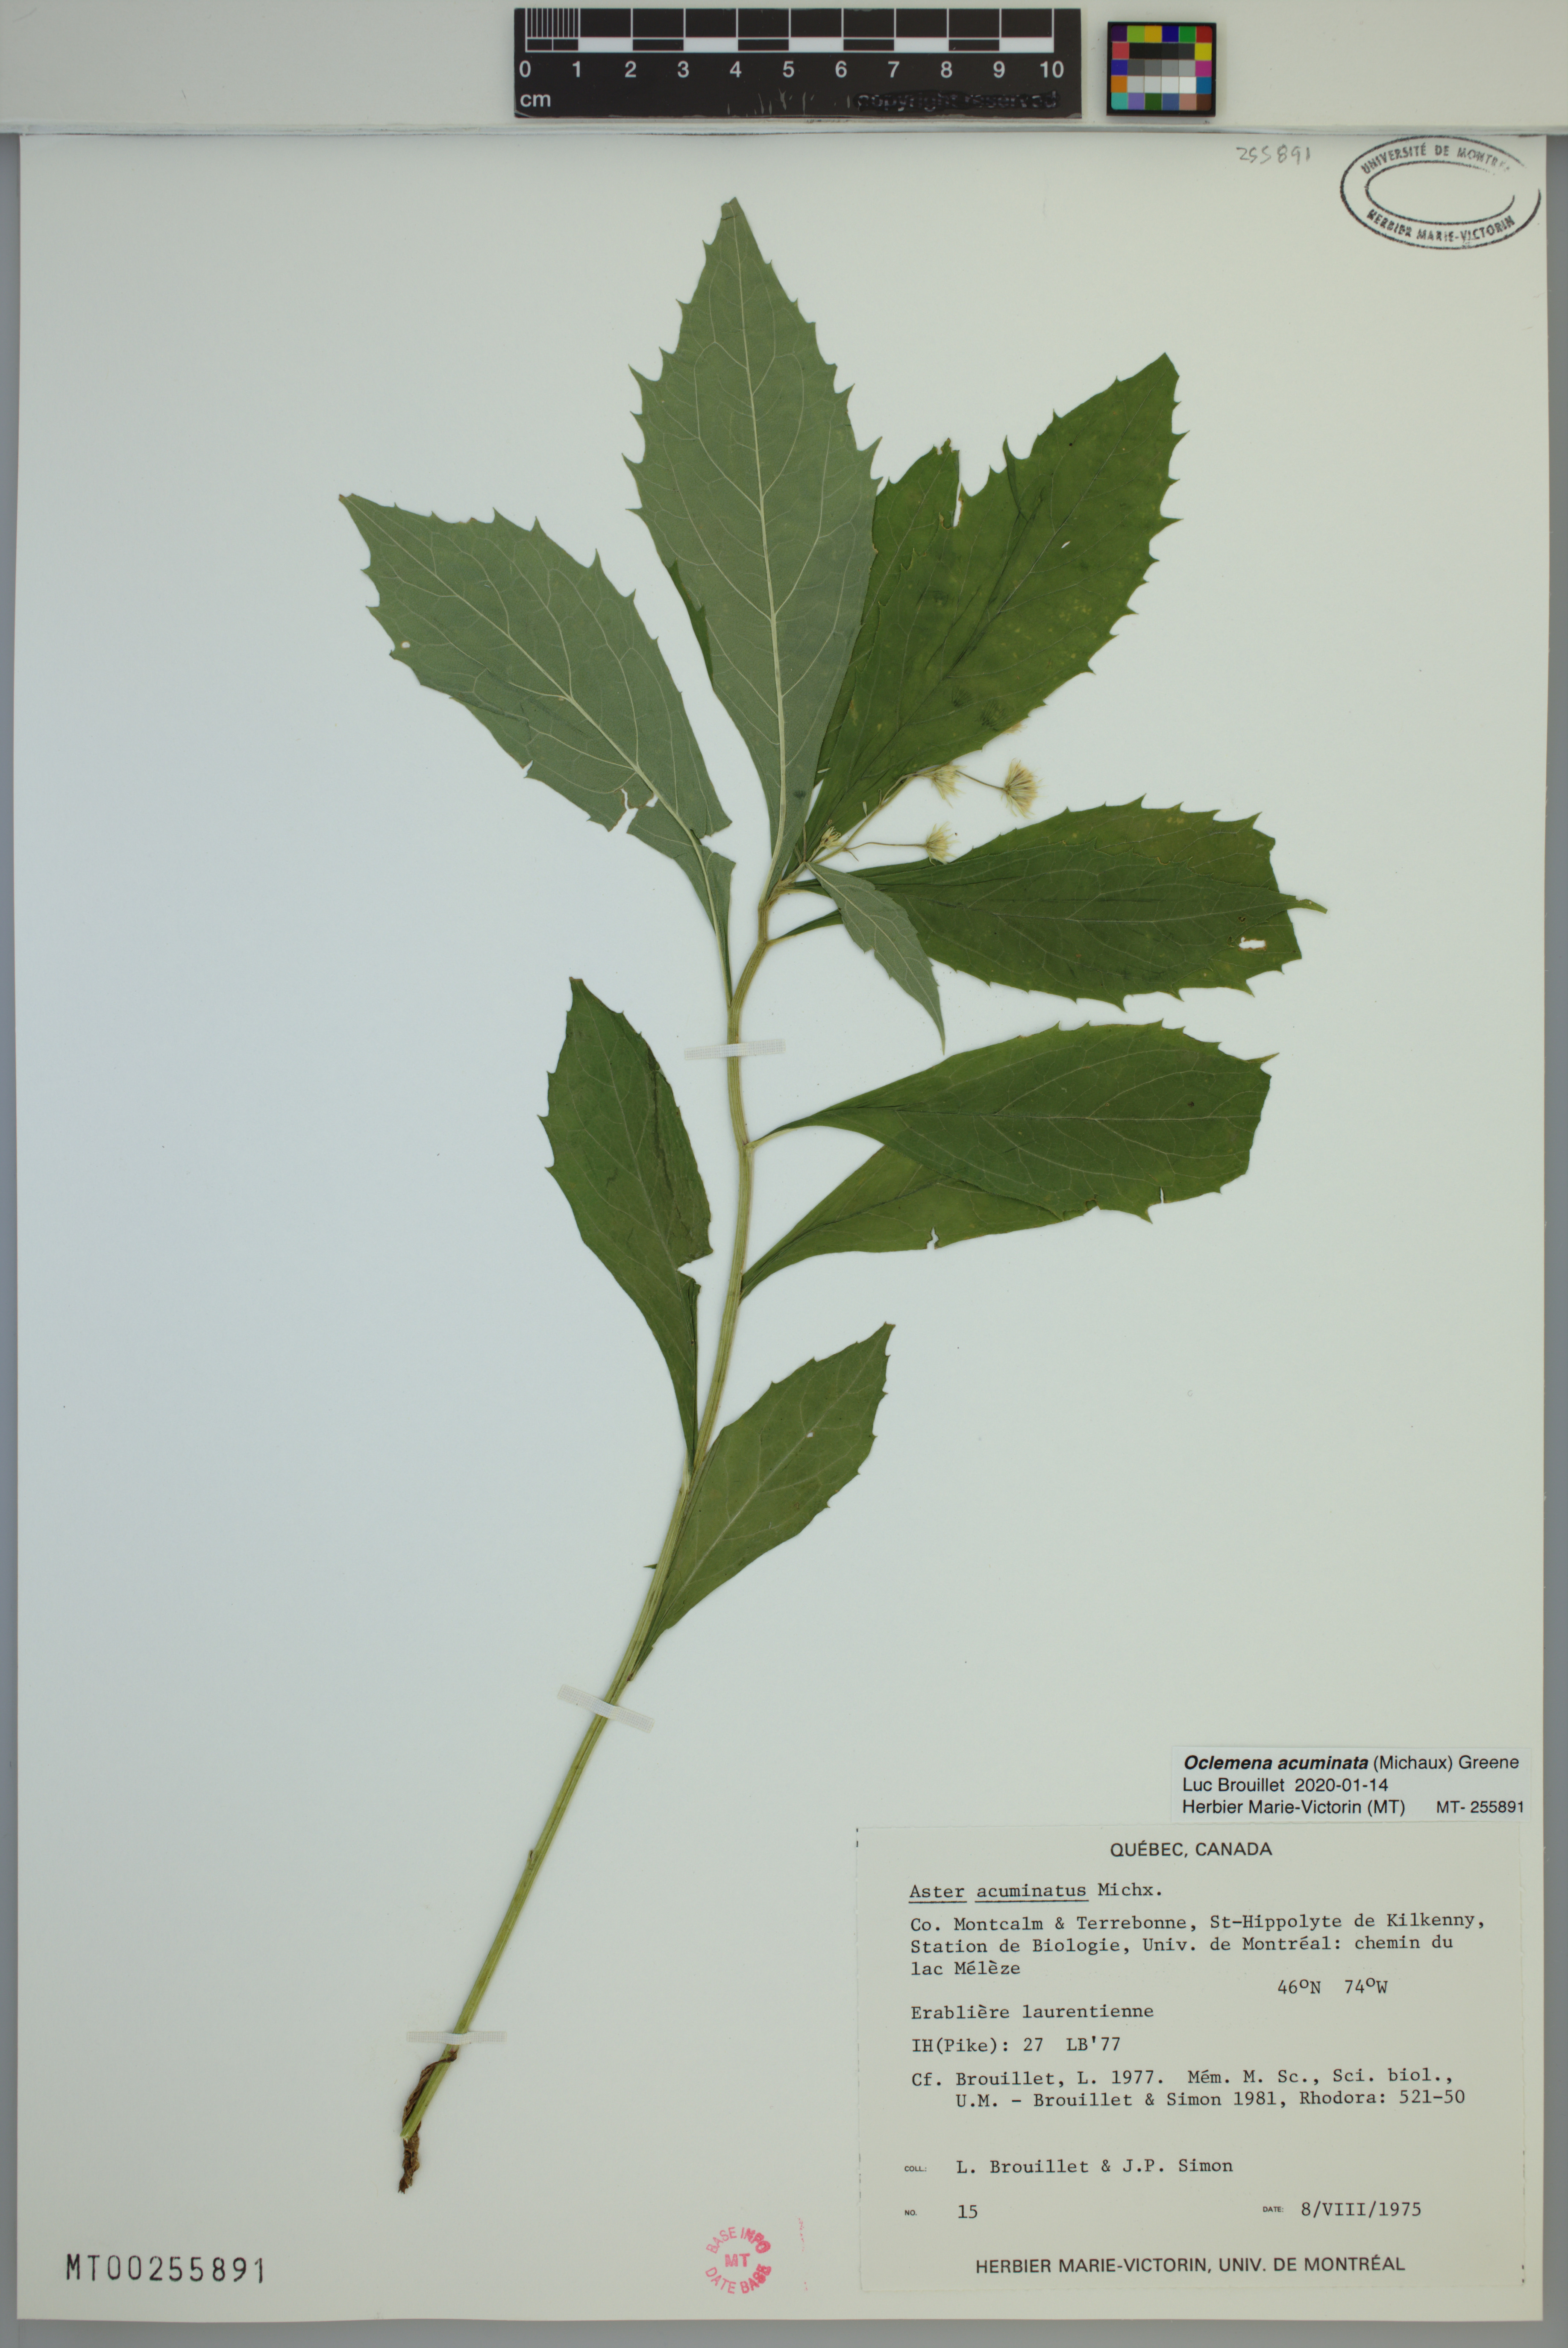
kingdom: Plantae
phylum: Tracheophyta
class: Magnoliopsida
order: Asterales
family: Asteraceae
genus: Oclemena
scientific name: Oclemena acuminata
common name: Mountain aster
